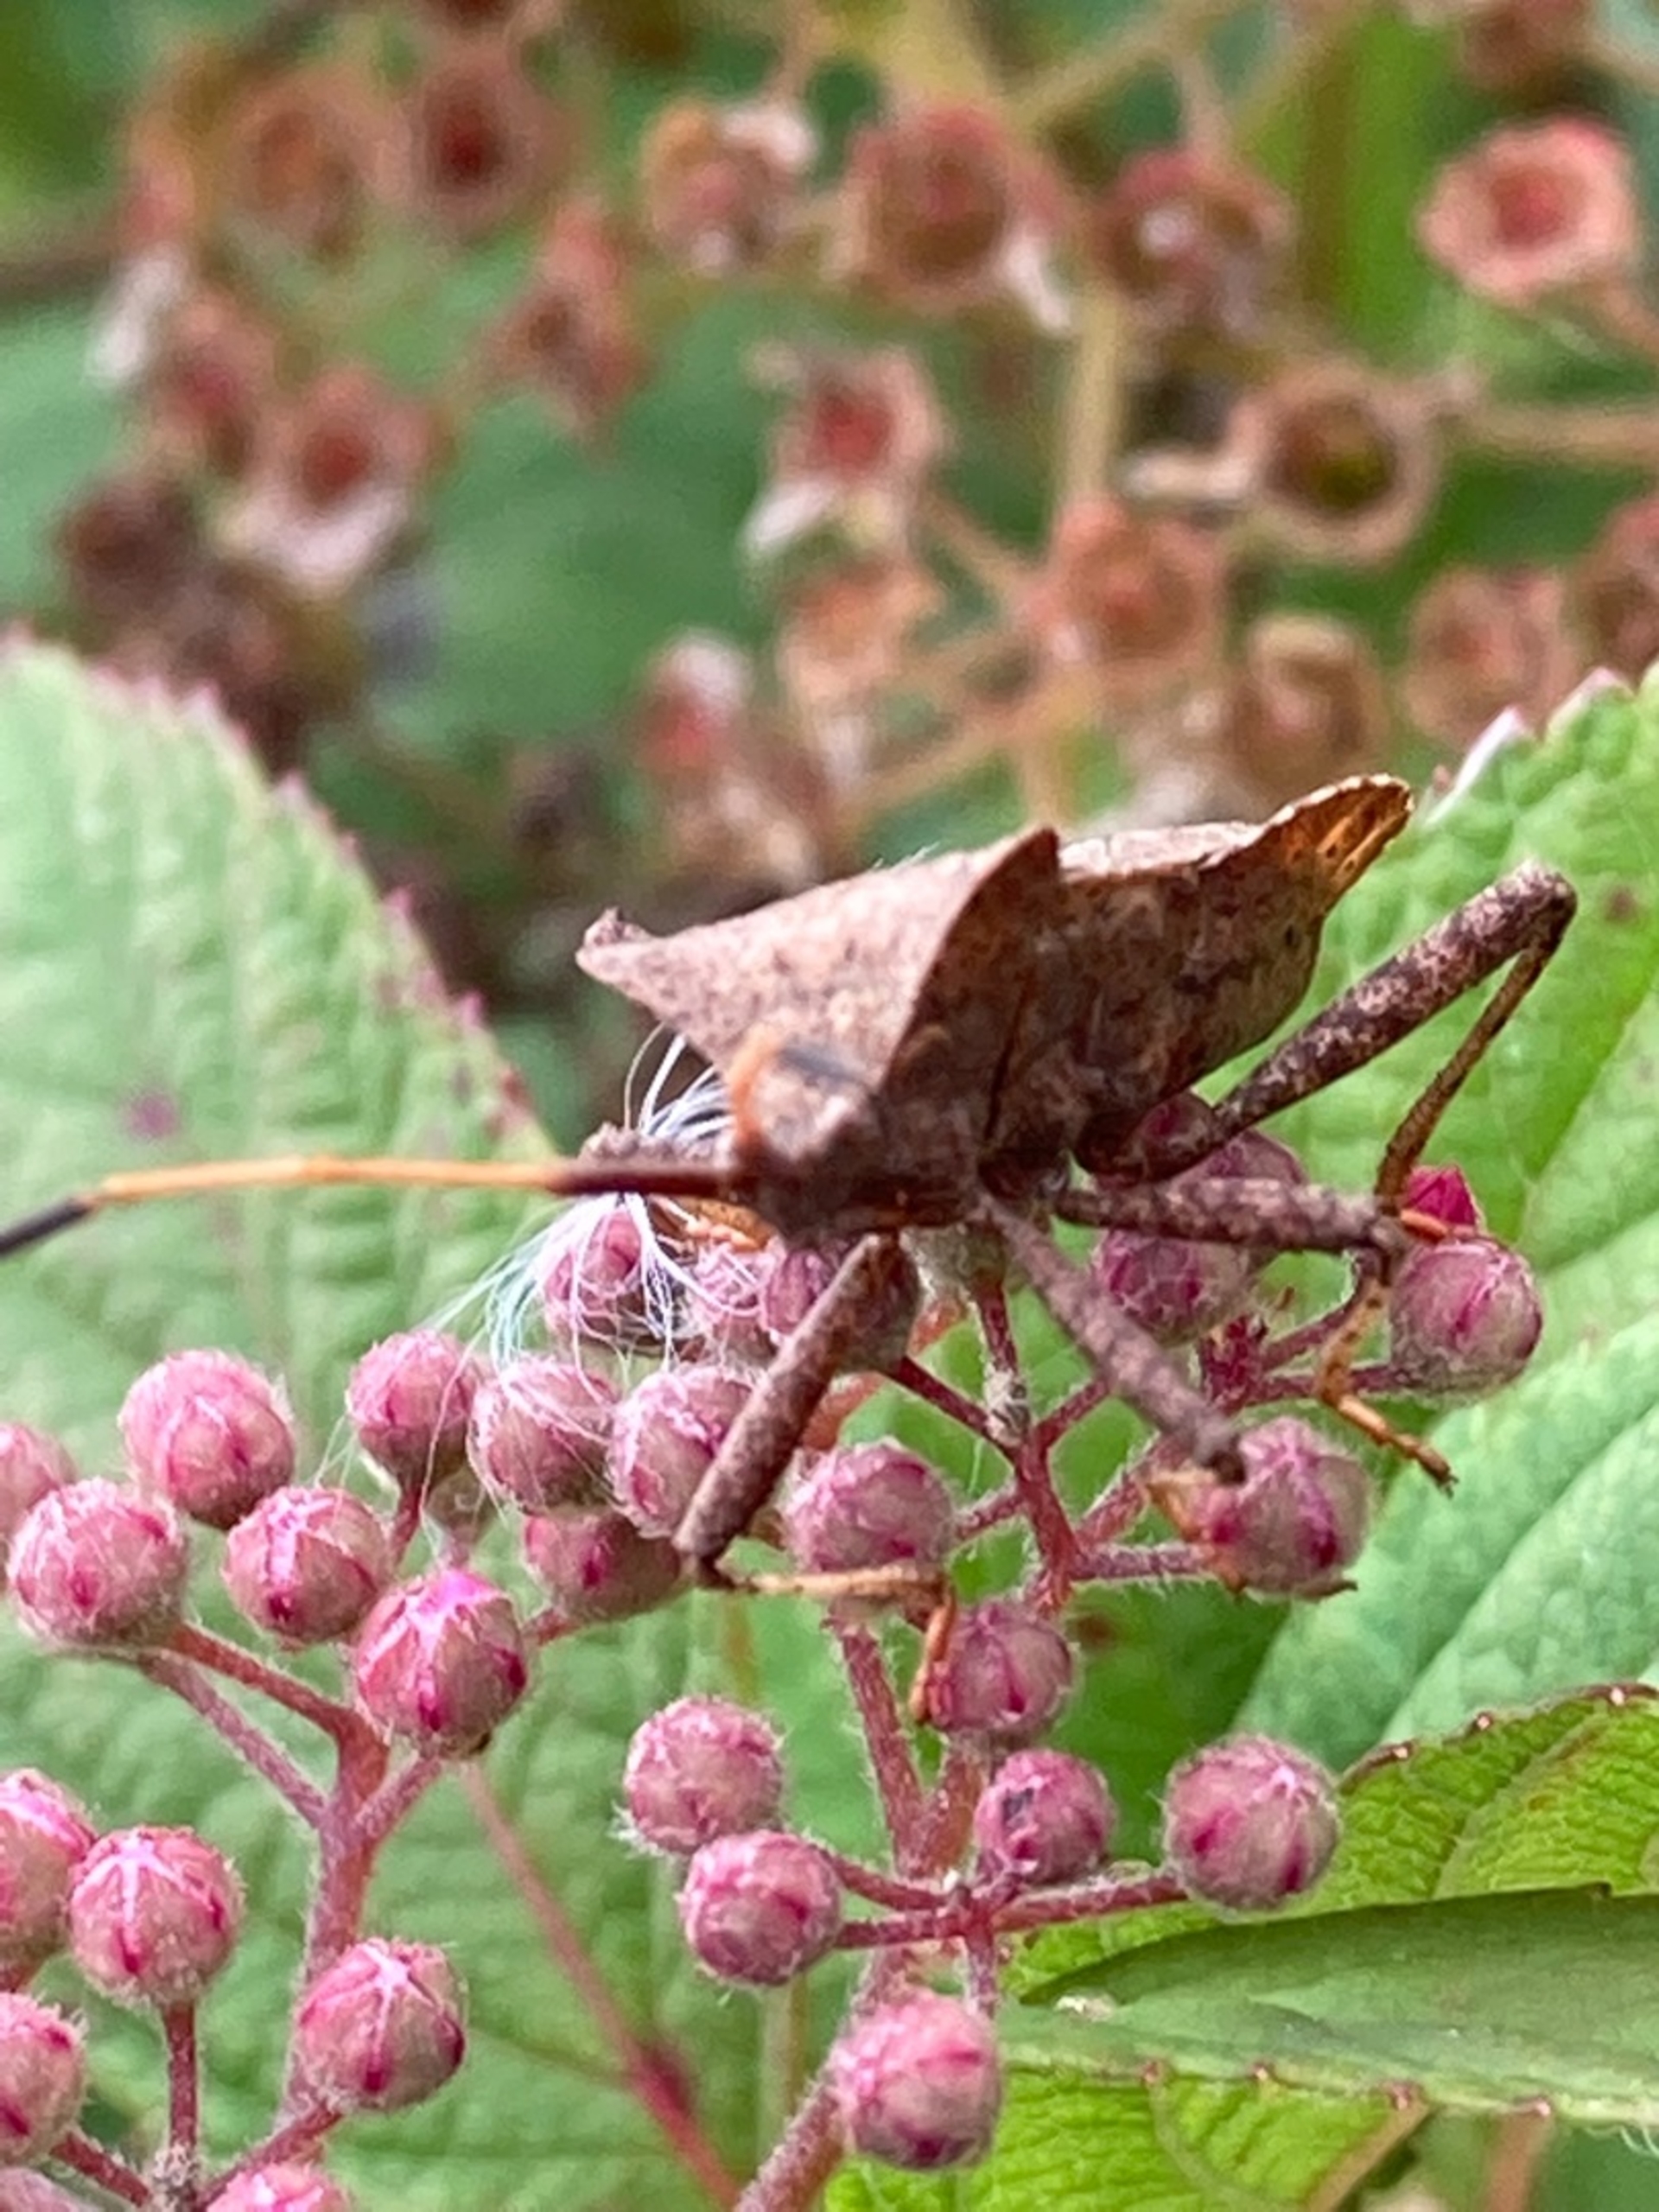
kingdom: Animalia
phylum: Arthropoda
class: Insecta
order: Hemiptera
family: Coreidae
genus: Coreus
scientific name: Coreus marginatus
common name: Skræppetæge
